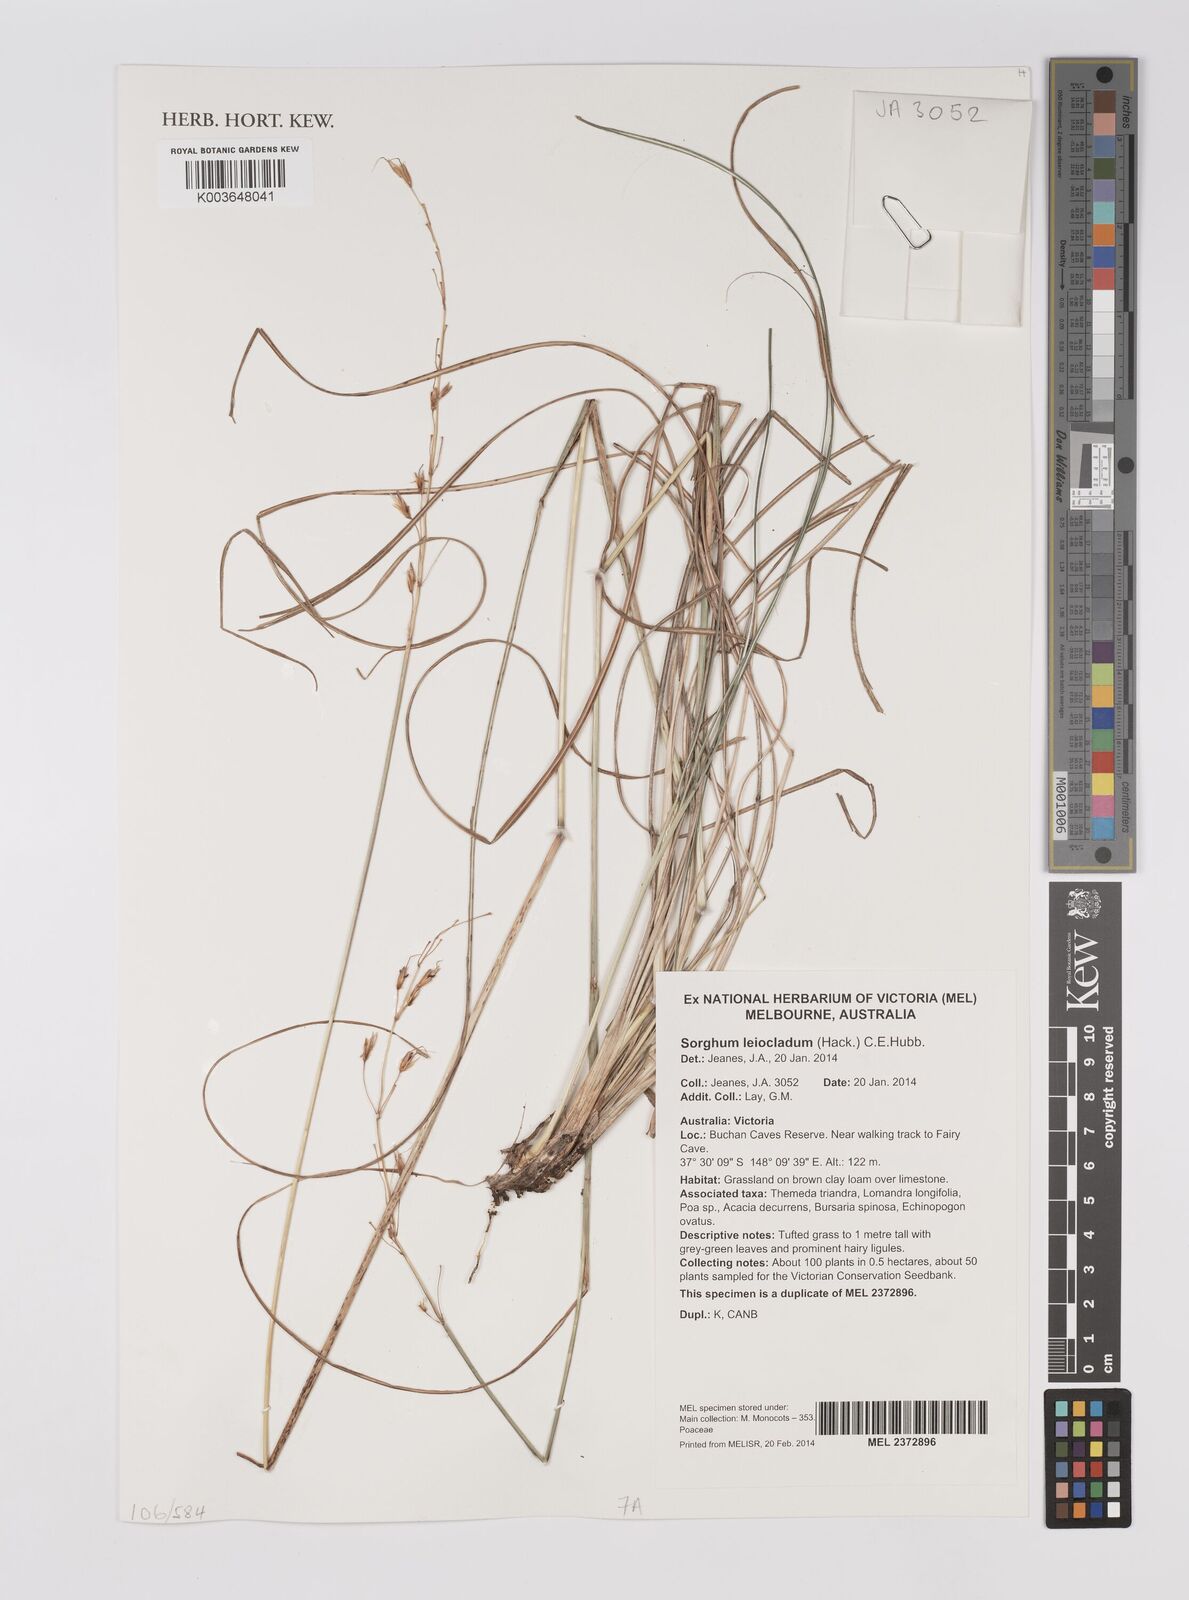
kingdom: Plantae
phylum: Tracheophyta
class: Liliopsida
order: Poales
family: Poaceae
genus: Sarga
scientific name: Sarga leioclada
